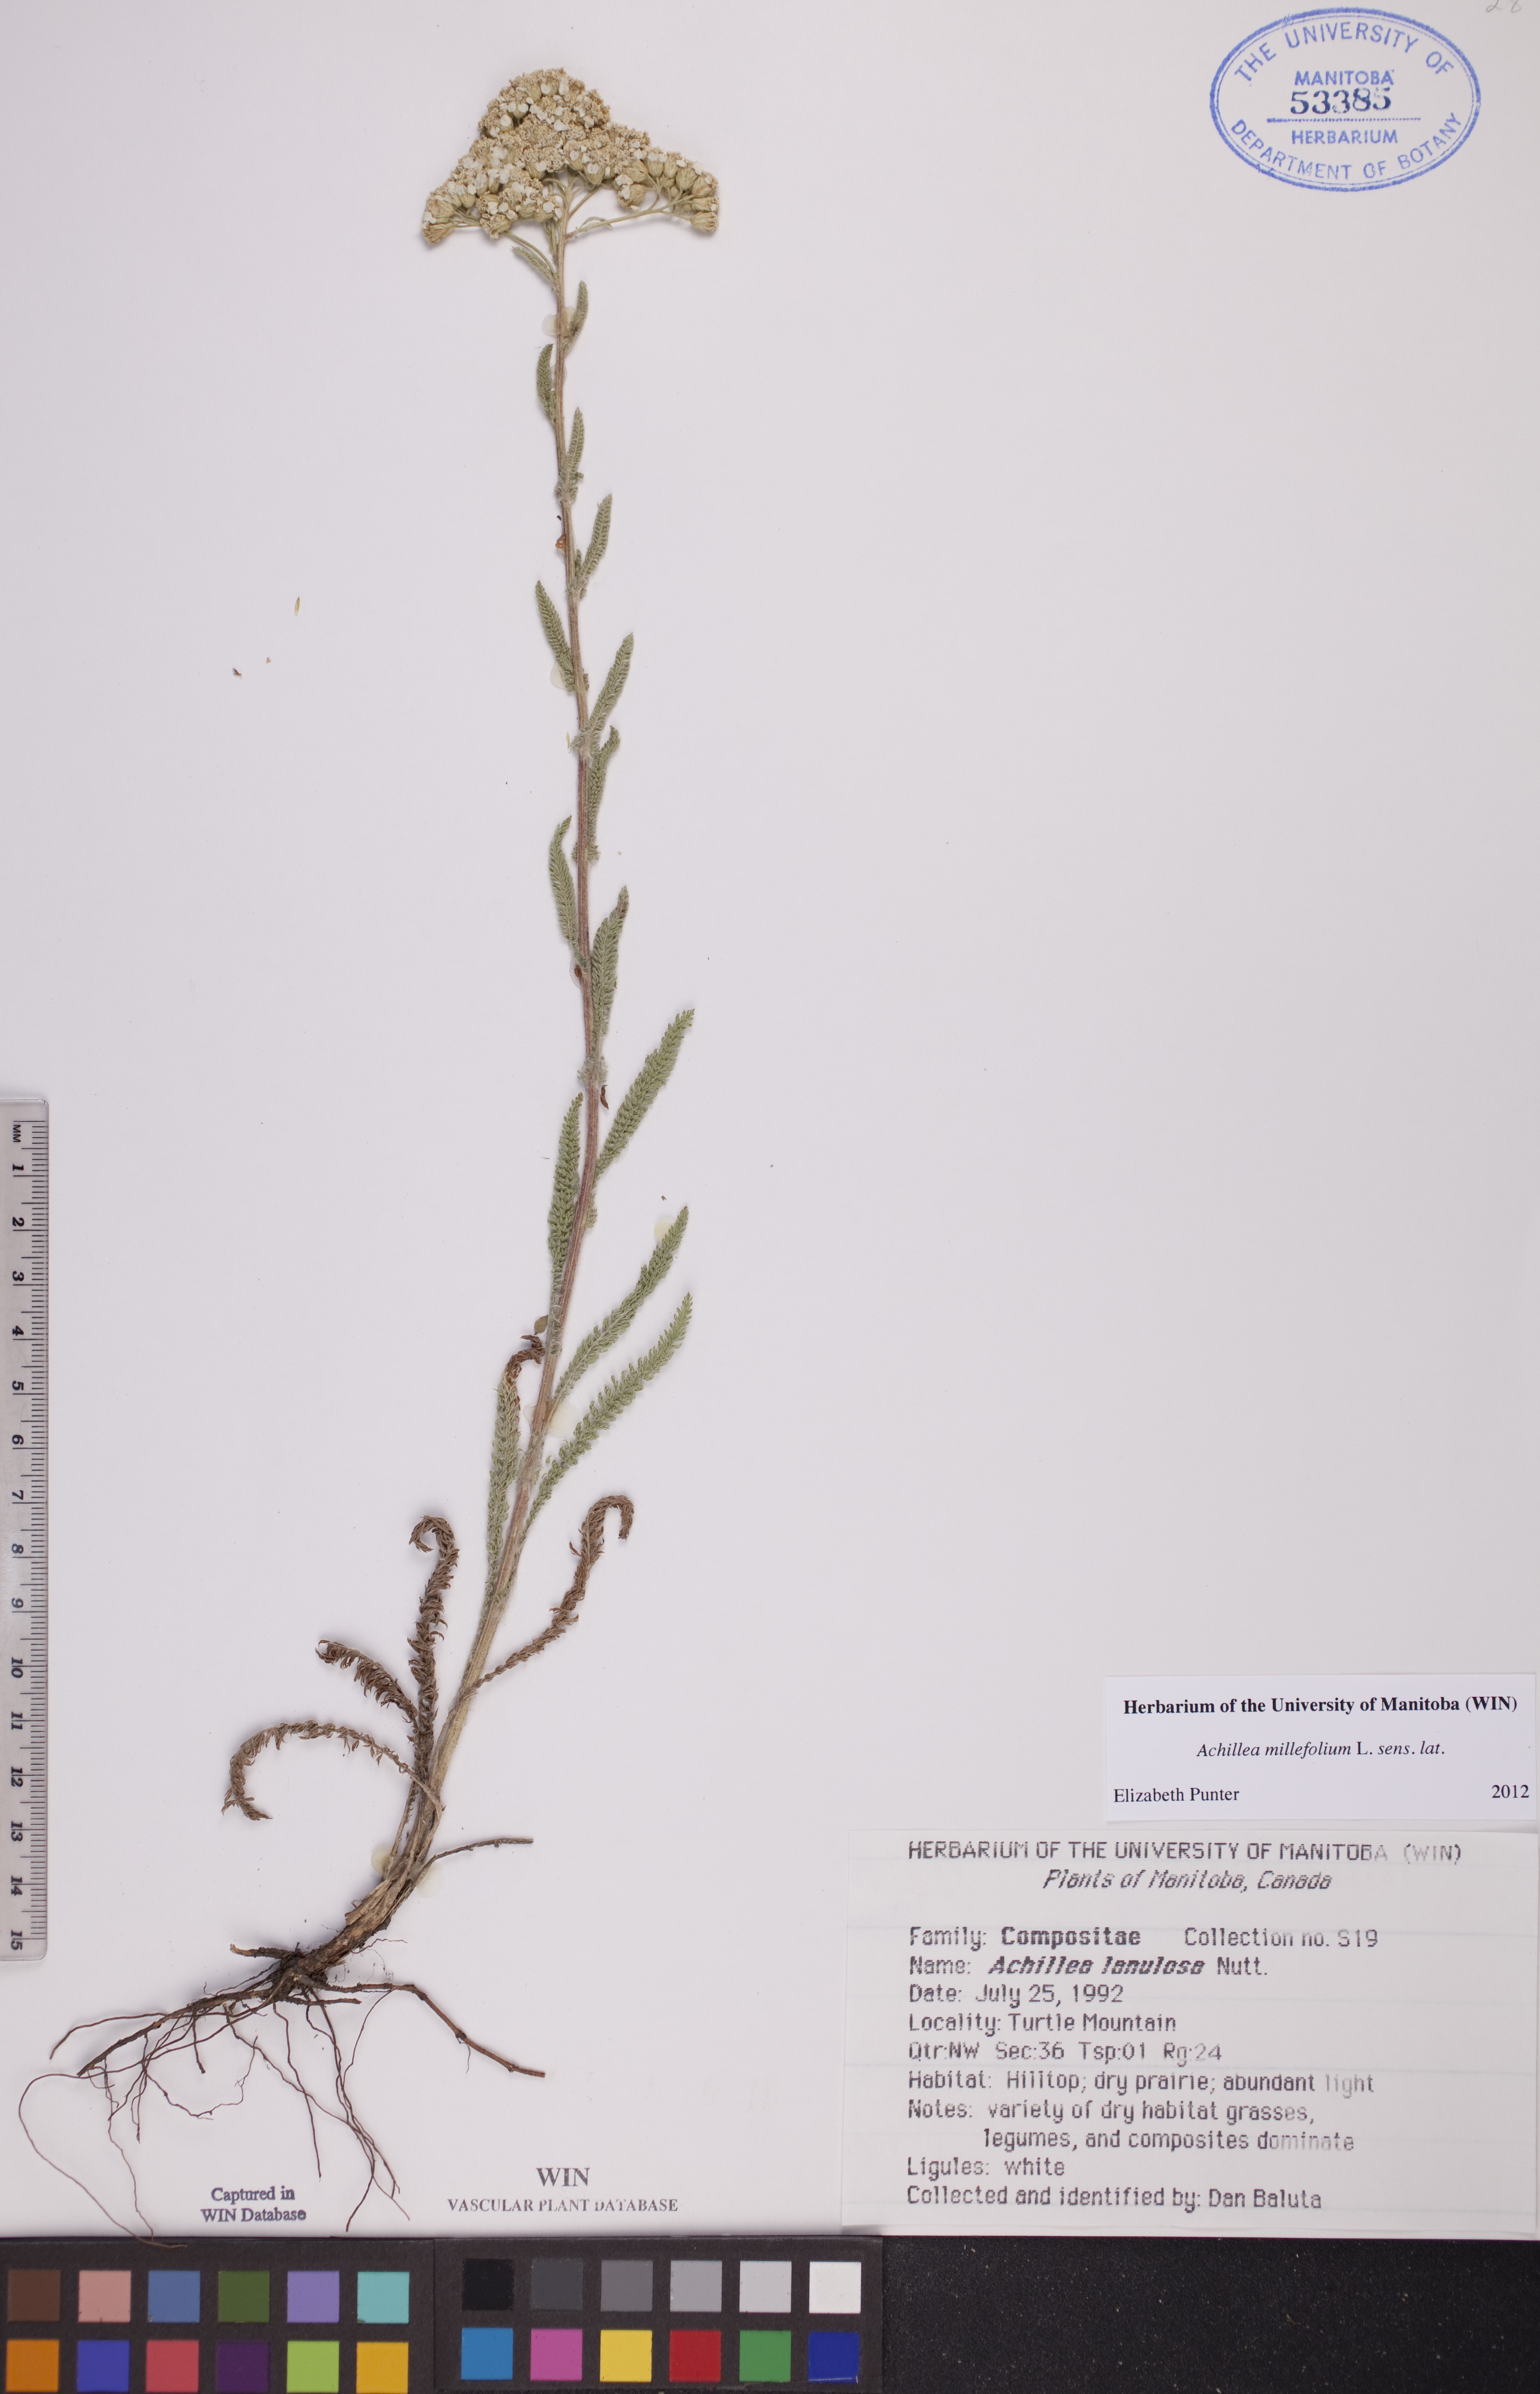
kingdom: Plantae
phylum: Tracheophyta
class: Magnoliopsida
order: Asterales
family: Asteraceae
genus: Achillea
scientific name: Achillea millefolium
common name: Yarrow
